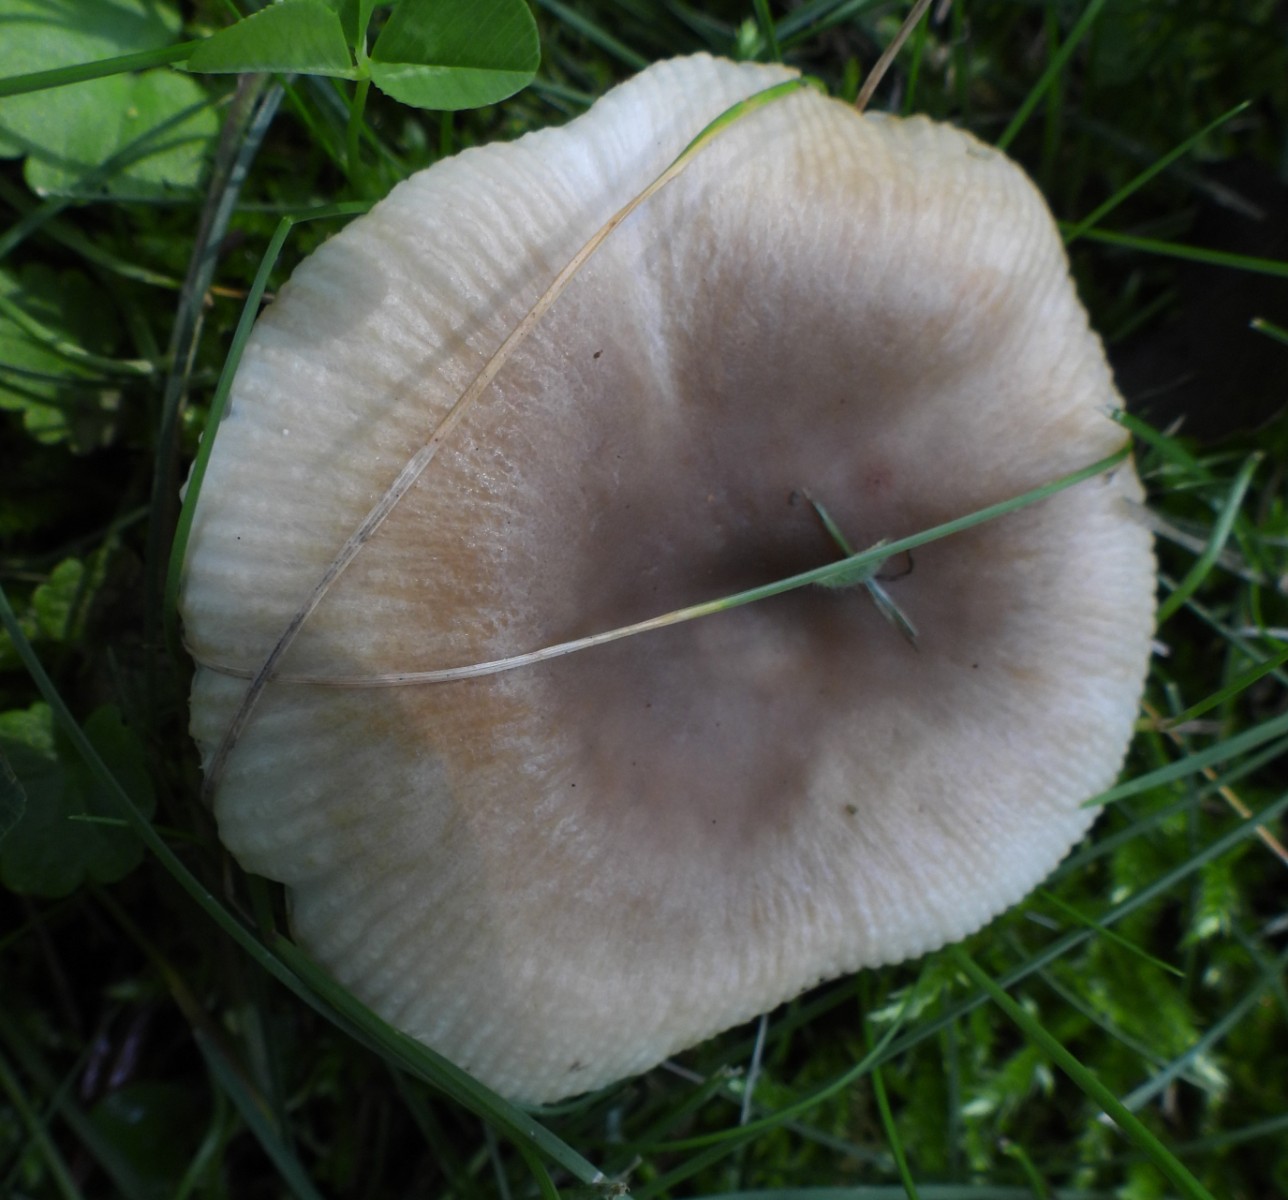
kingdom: Fungi
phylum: Basidiomycota
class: Agaricomycetes
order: Russulales
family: Russulaceae
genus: Russula
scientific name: Russula recondita
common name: mild kam-skørhat
